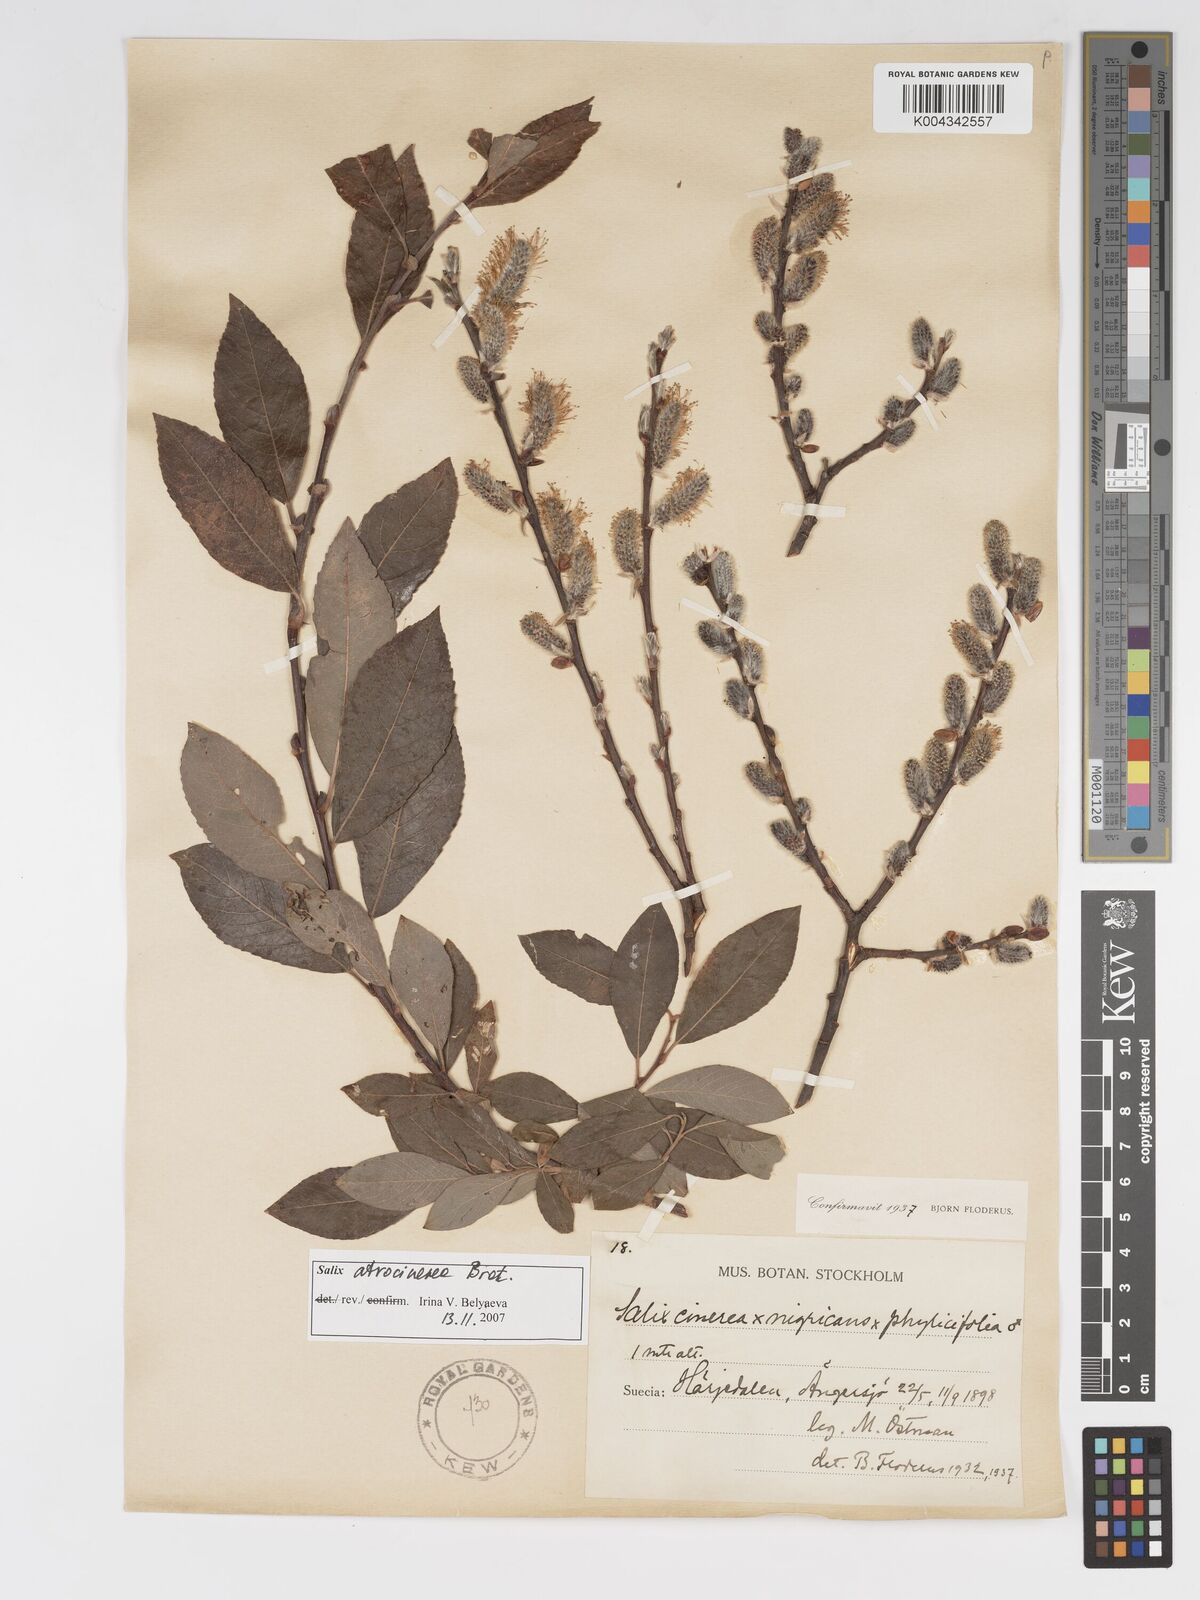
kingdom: Plantae
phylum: Tracheophyta
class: Magnoliopsida
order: Malpighiales
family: Salicaceae
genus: Salix
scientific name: Salix cinerea
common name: Common sallow
